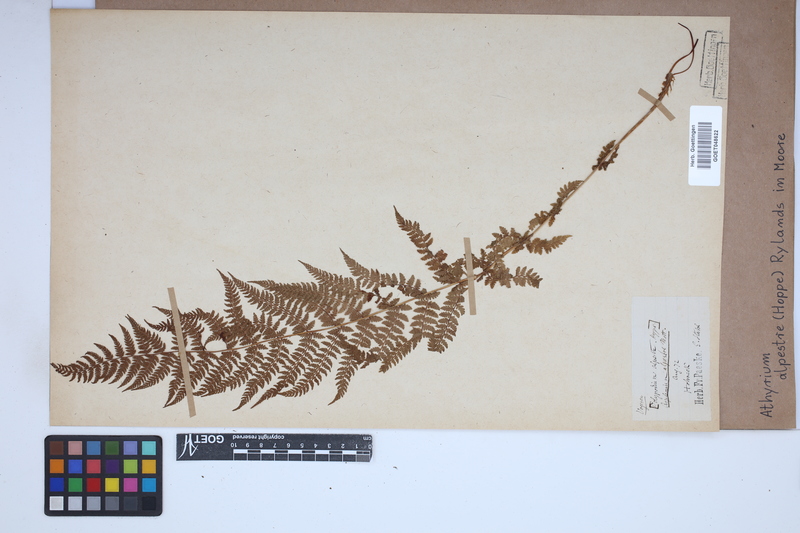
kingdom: Plantae
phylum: Tracheophyta
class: Polypodiopsida
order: Polypodiales
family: Athyriaceae
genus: Pseudathyrium
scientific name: Pseudathyrium alpestre
